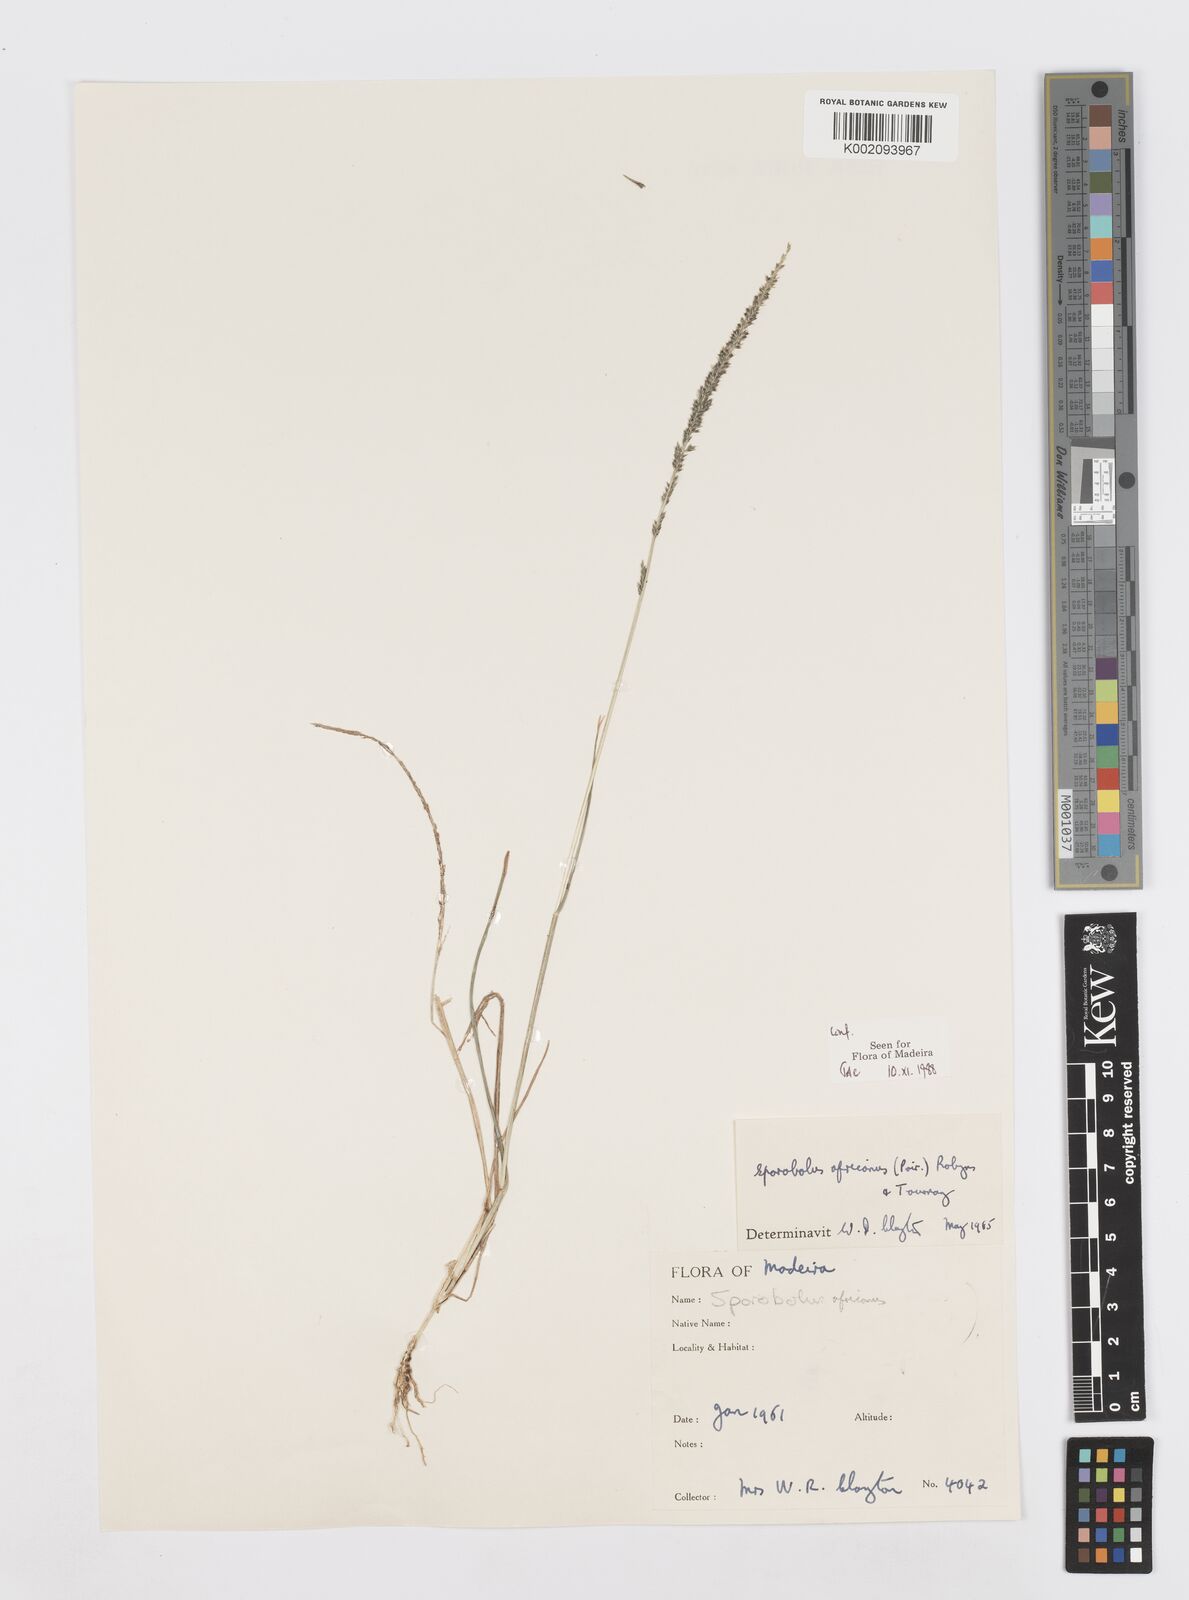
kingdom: Plantae
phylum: Tracheophyta
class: Liliopsida
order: Poales
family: Poaceae
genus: Sporobolus
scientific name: Sporobolus africanus
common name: African dropseed
